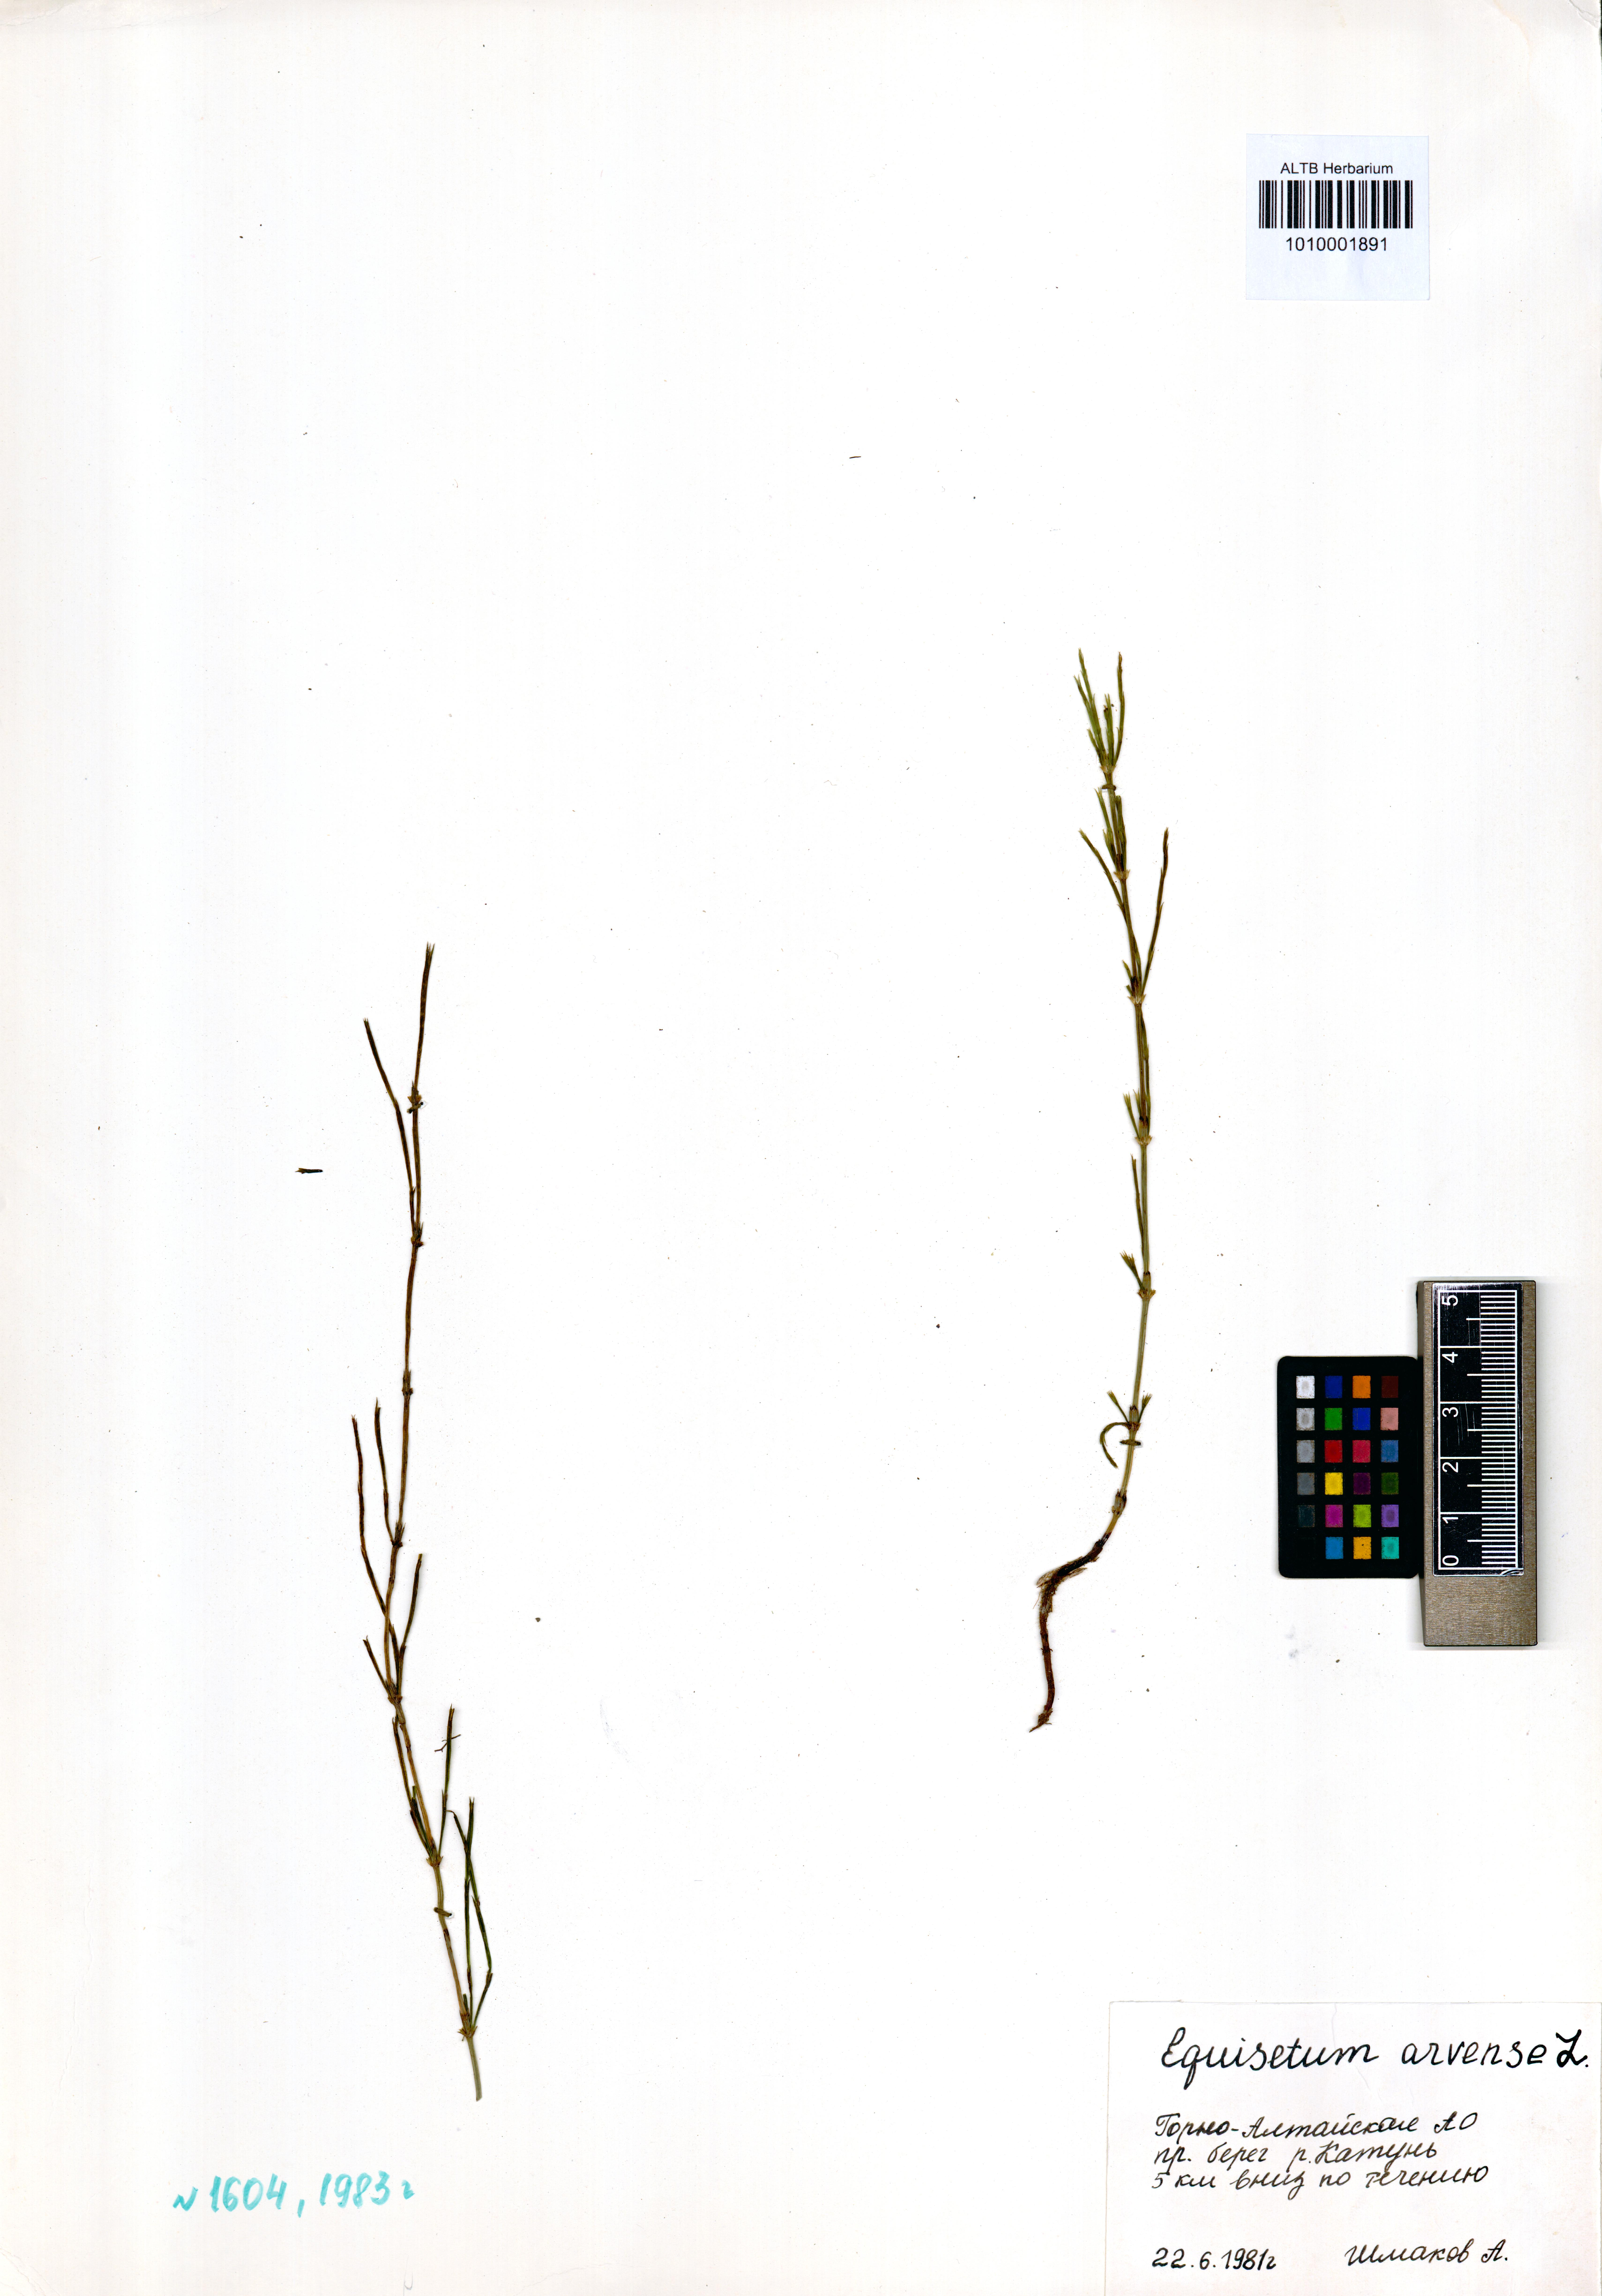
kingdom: Plantae
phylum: Tracheophyta
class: Polypodiopsida
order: Equisetales
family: Equisetaceae
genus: Equisetum
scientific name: Equisetum arvense
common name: Field horsetail
